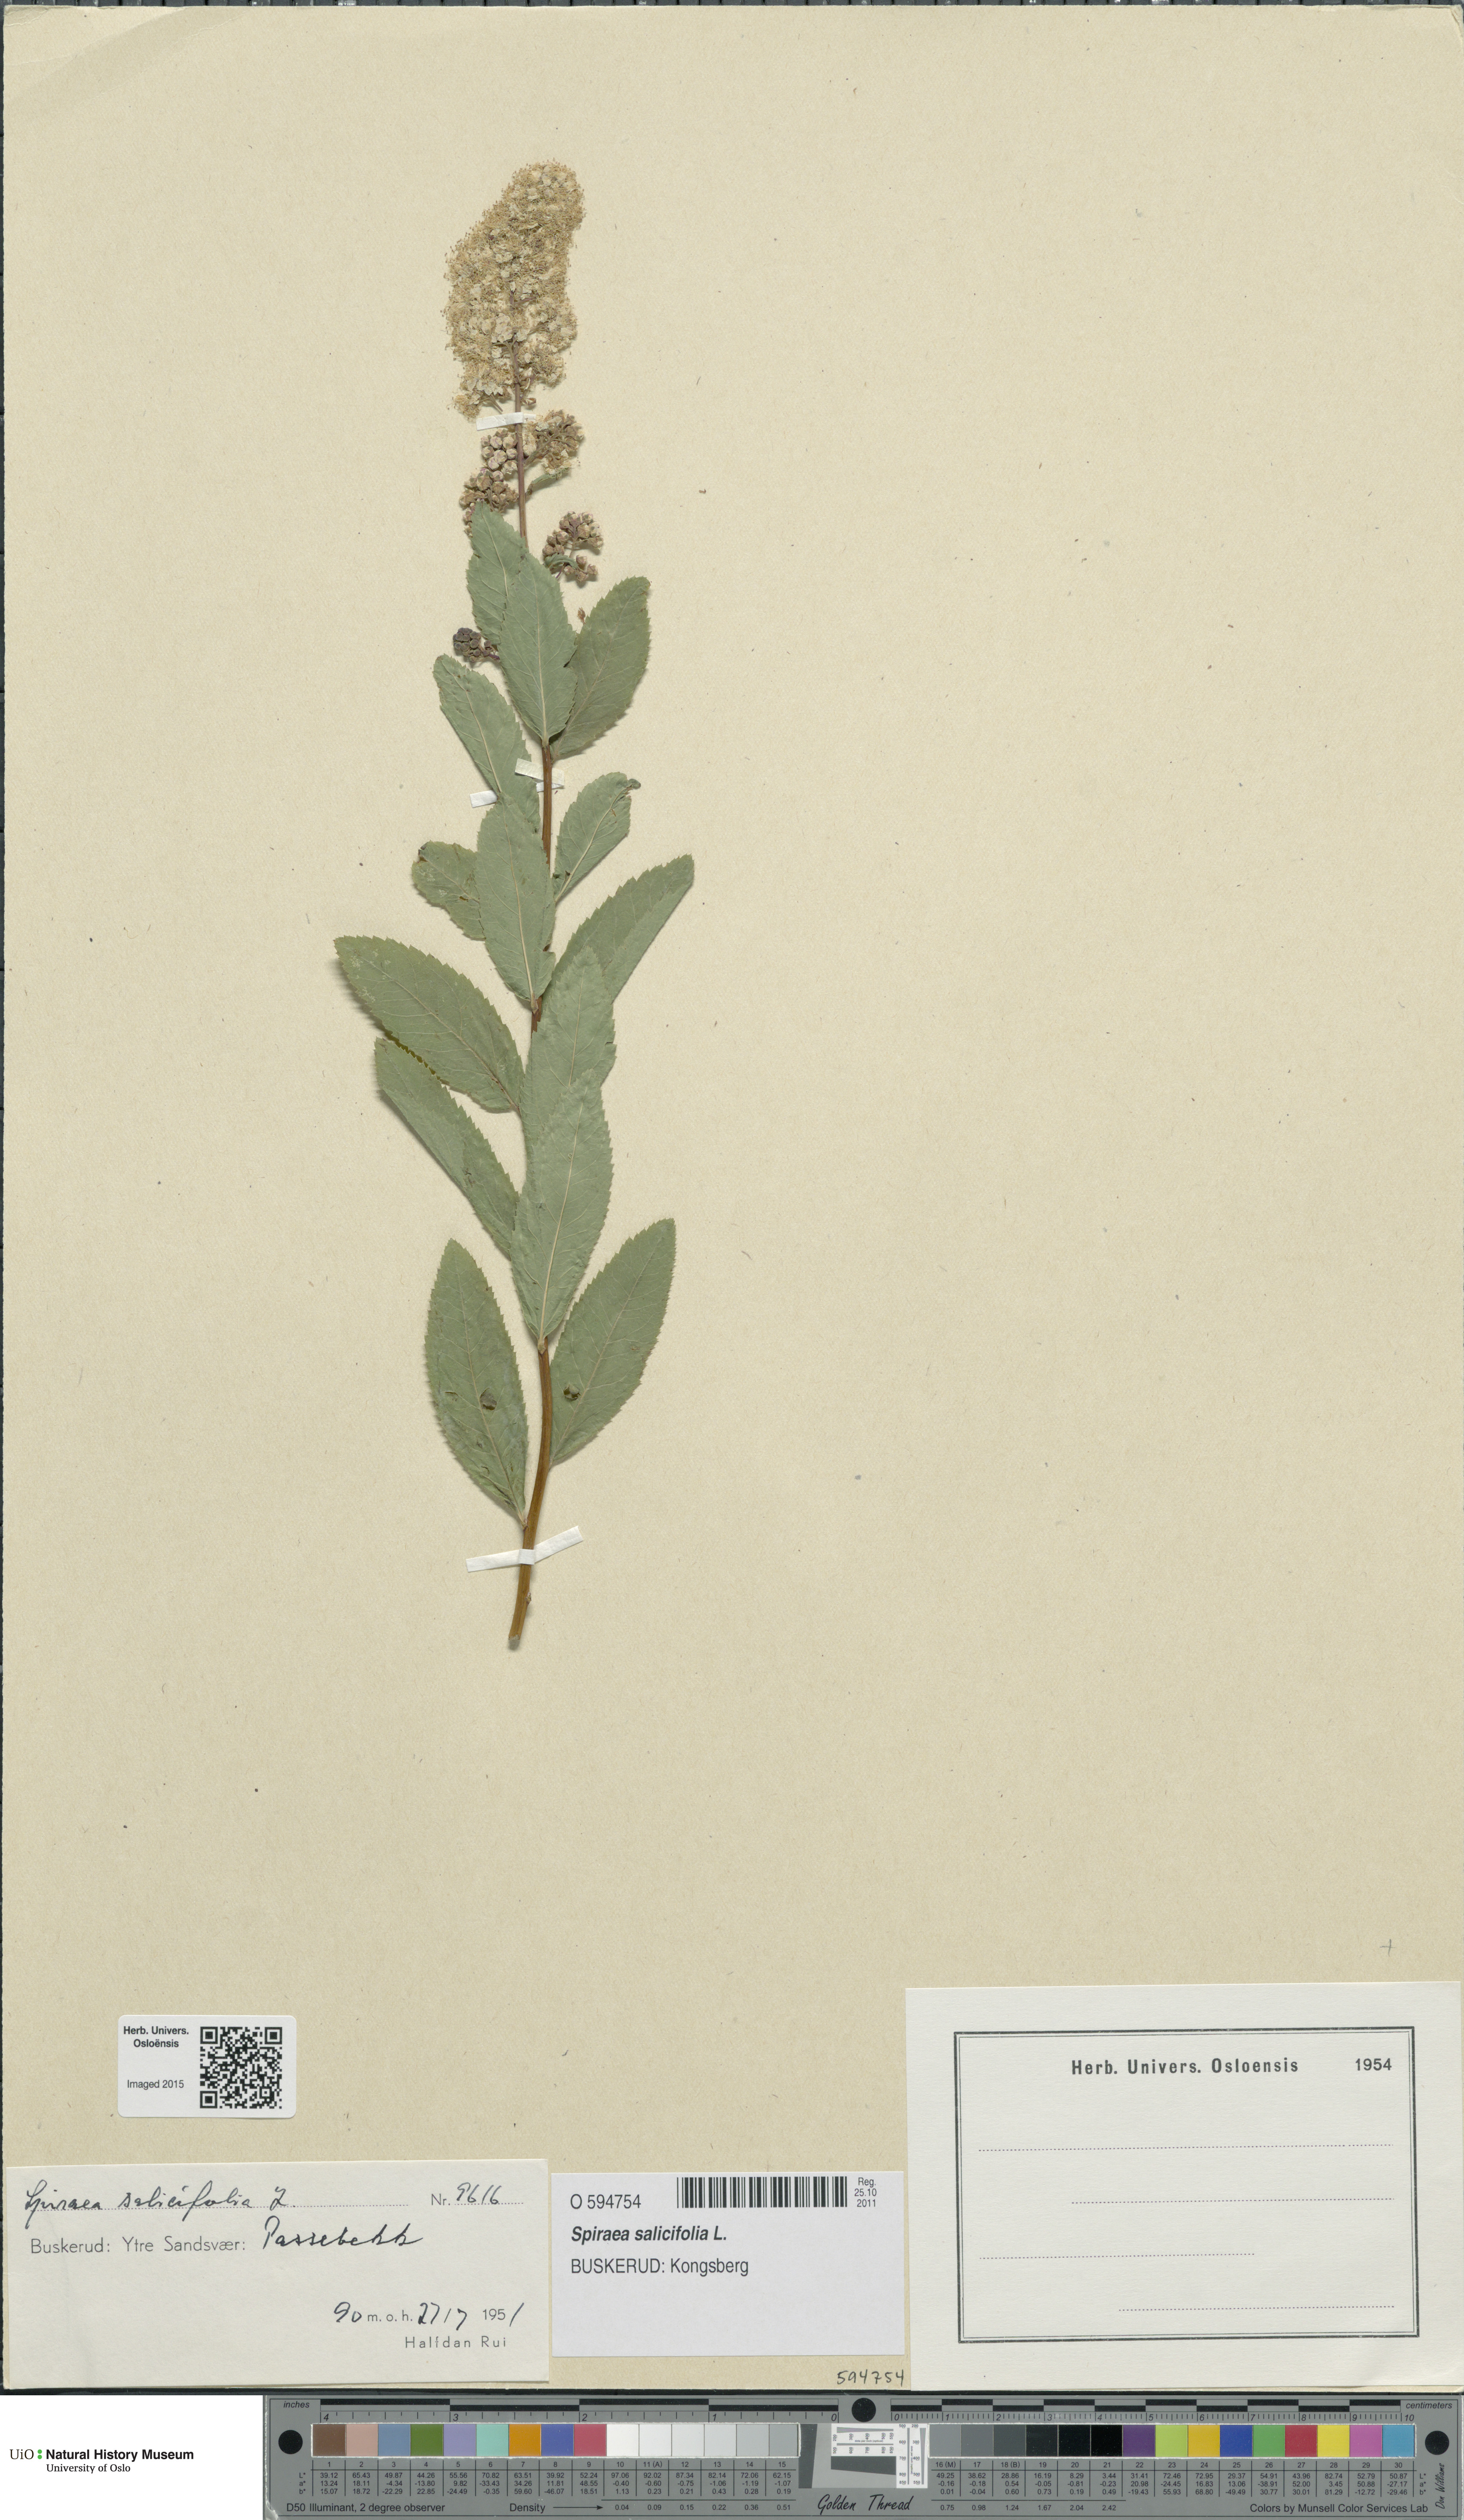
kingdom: Plantae
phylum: Tracheophyta
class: Magnoliopsida
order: Rosales
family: Rosaceae
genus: Spiraea
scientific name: Spiraea salicifolia
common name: Bridewort
